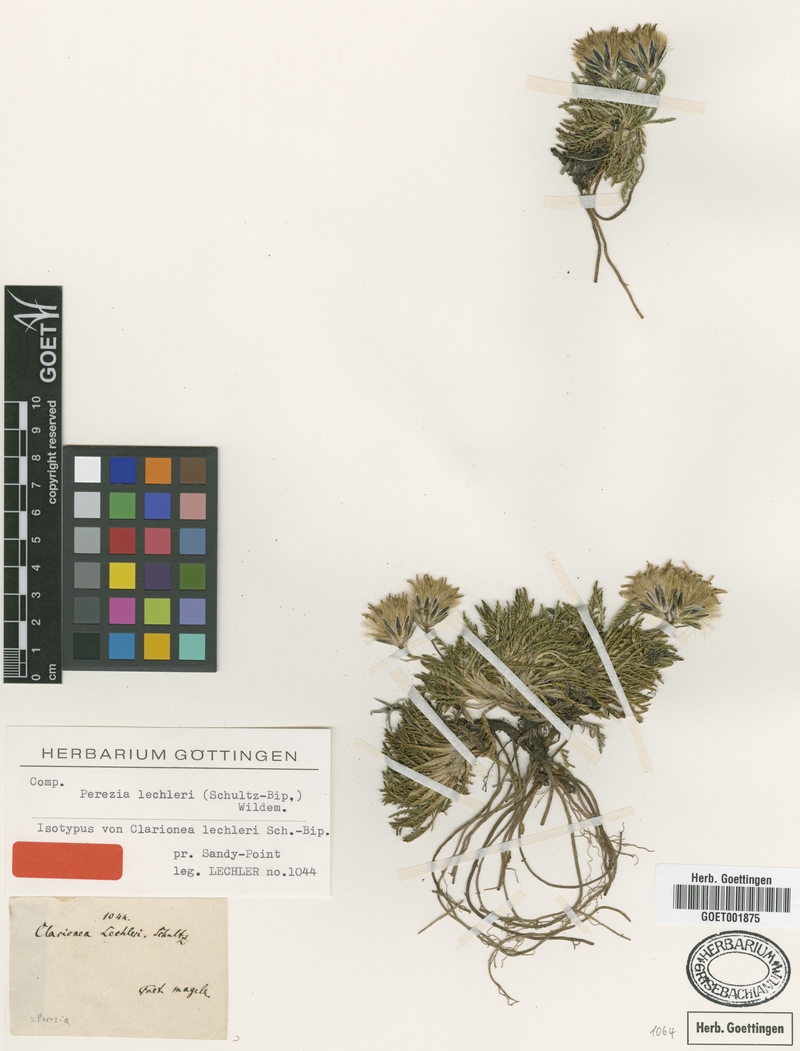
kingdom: Plantae
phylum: Tracheophyta
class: Magnoliopsida
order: Asterales
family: Asteraceae
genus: Perezia
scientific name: Perezia pilifera
